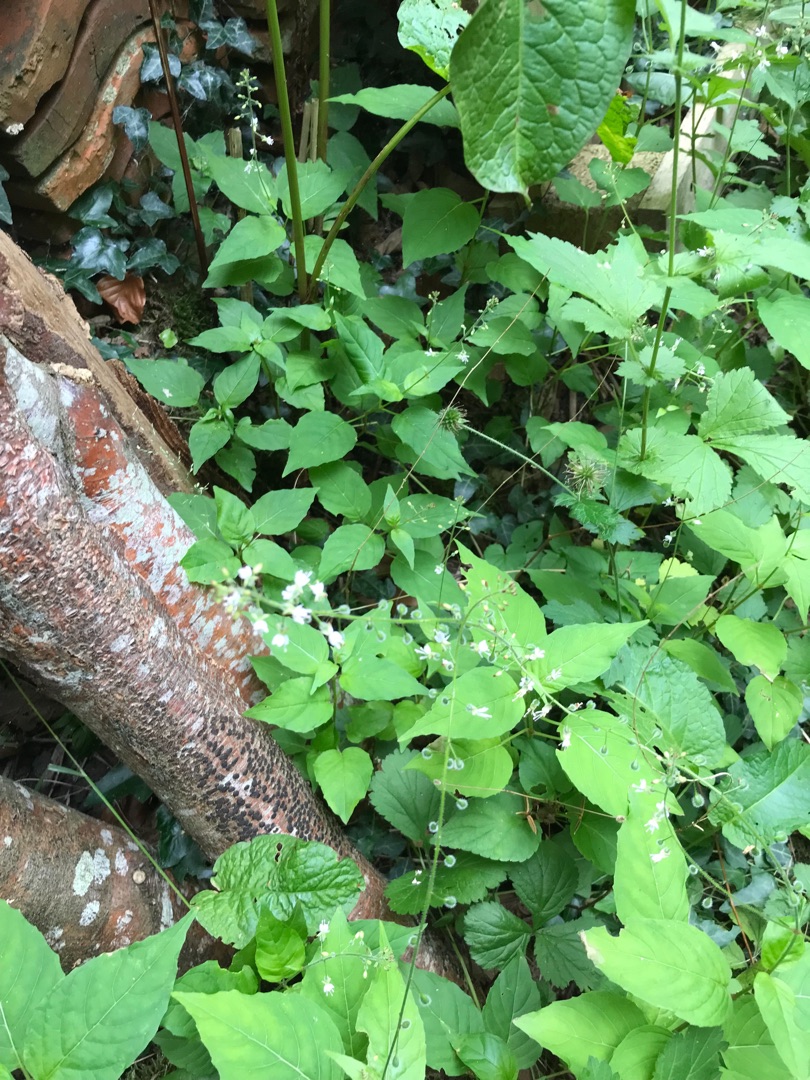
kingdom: Plantae
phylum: Tracheophyta
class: Magnoliopsida
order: Myrtales
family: Onagraceae
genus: Circaea
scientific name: Circaea lutetiana
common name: Dunet steffensurt
